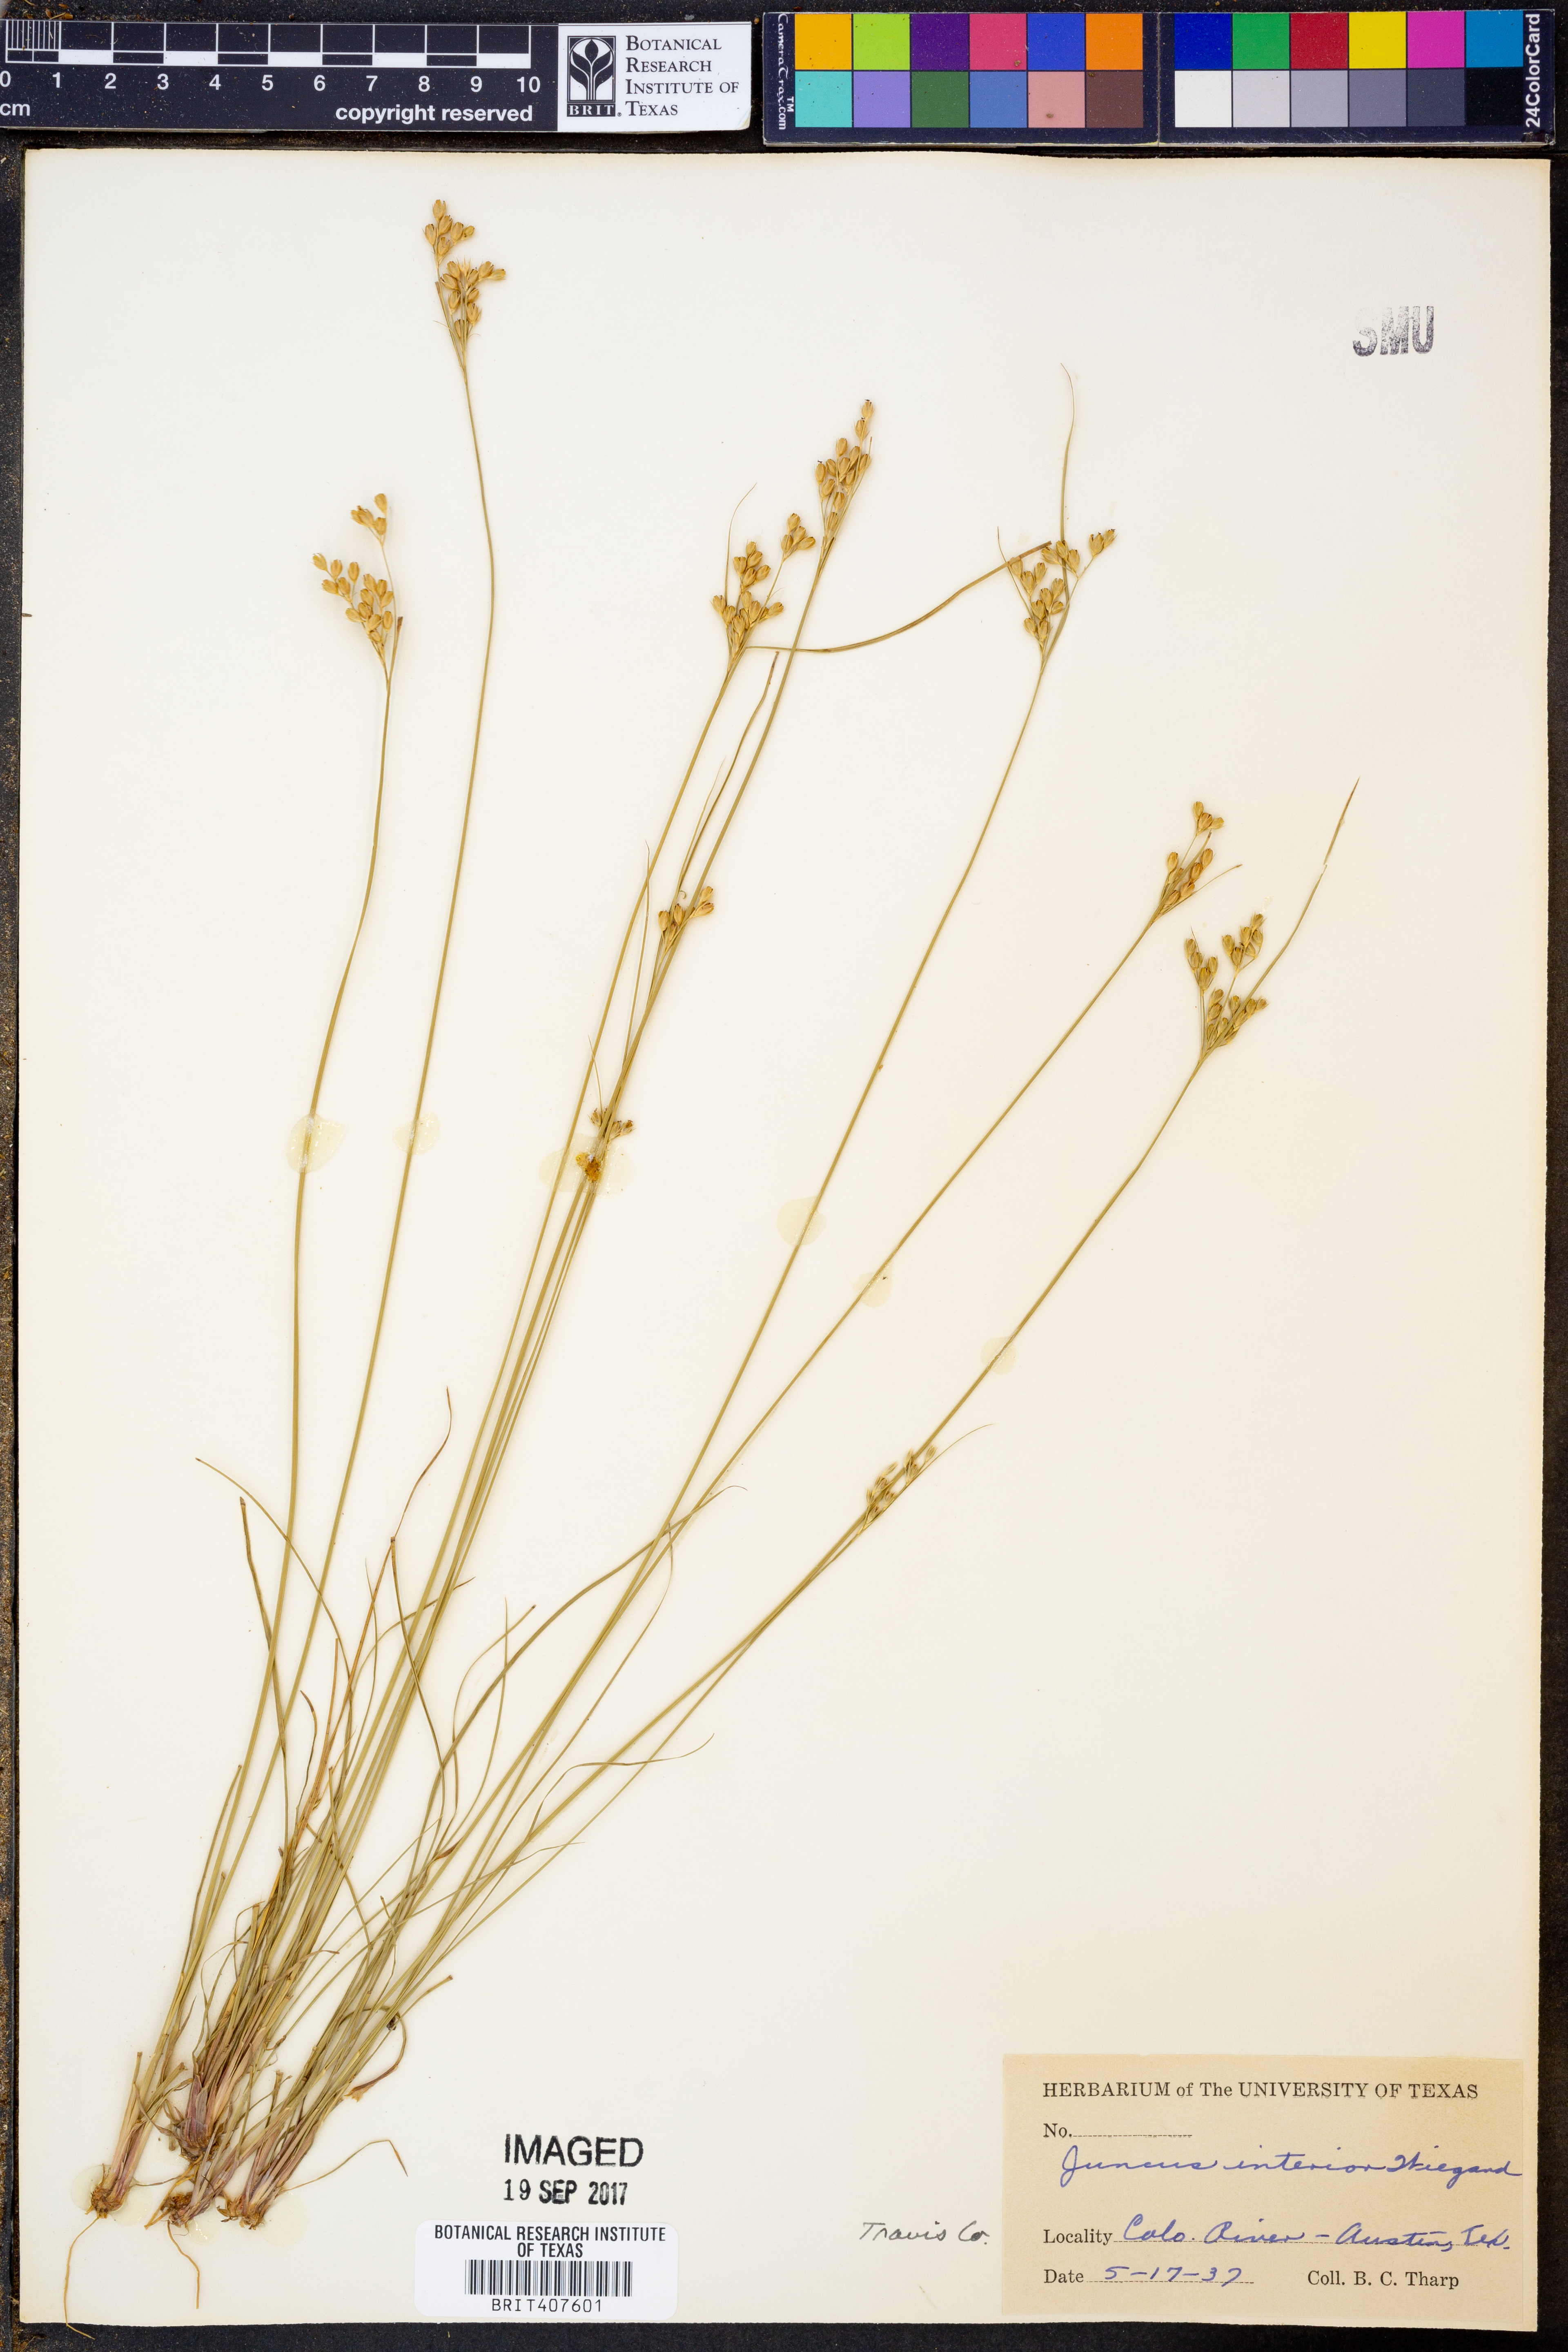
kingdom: Plantae
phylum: Tracheophyta
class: Liliopsida
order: Poales
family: Juncaceae
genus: Juncus
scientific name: Juncus interior
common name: Interior rush
